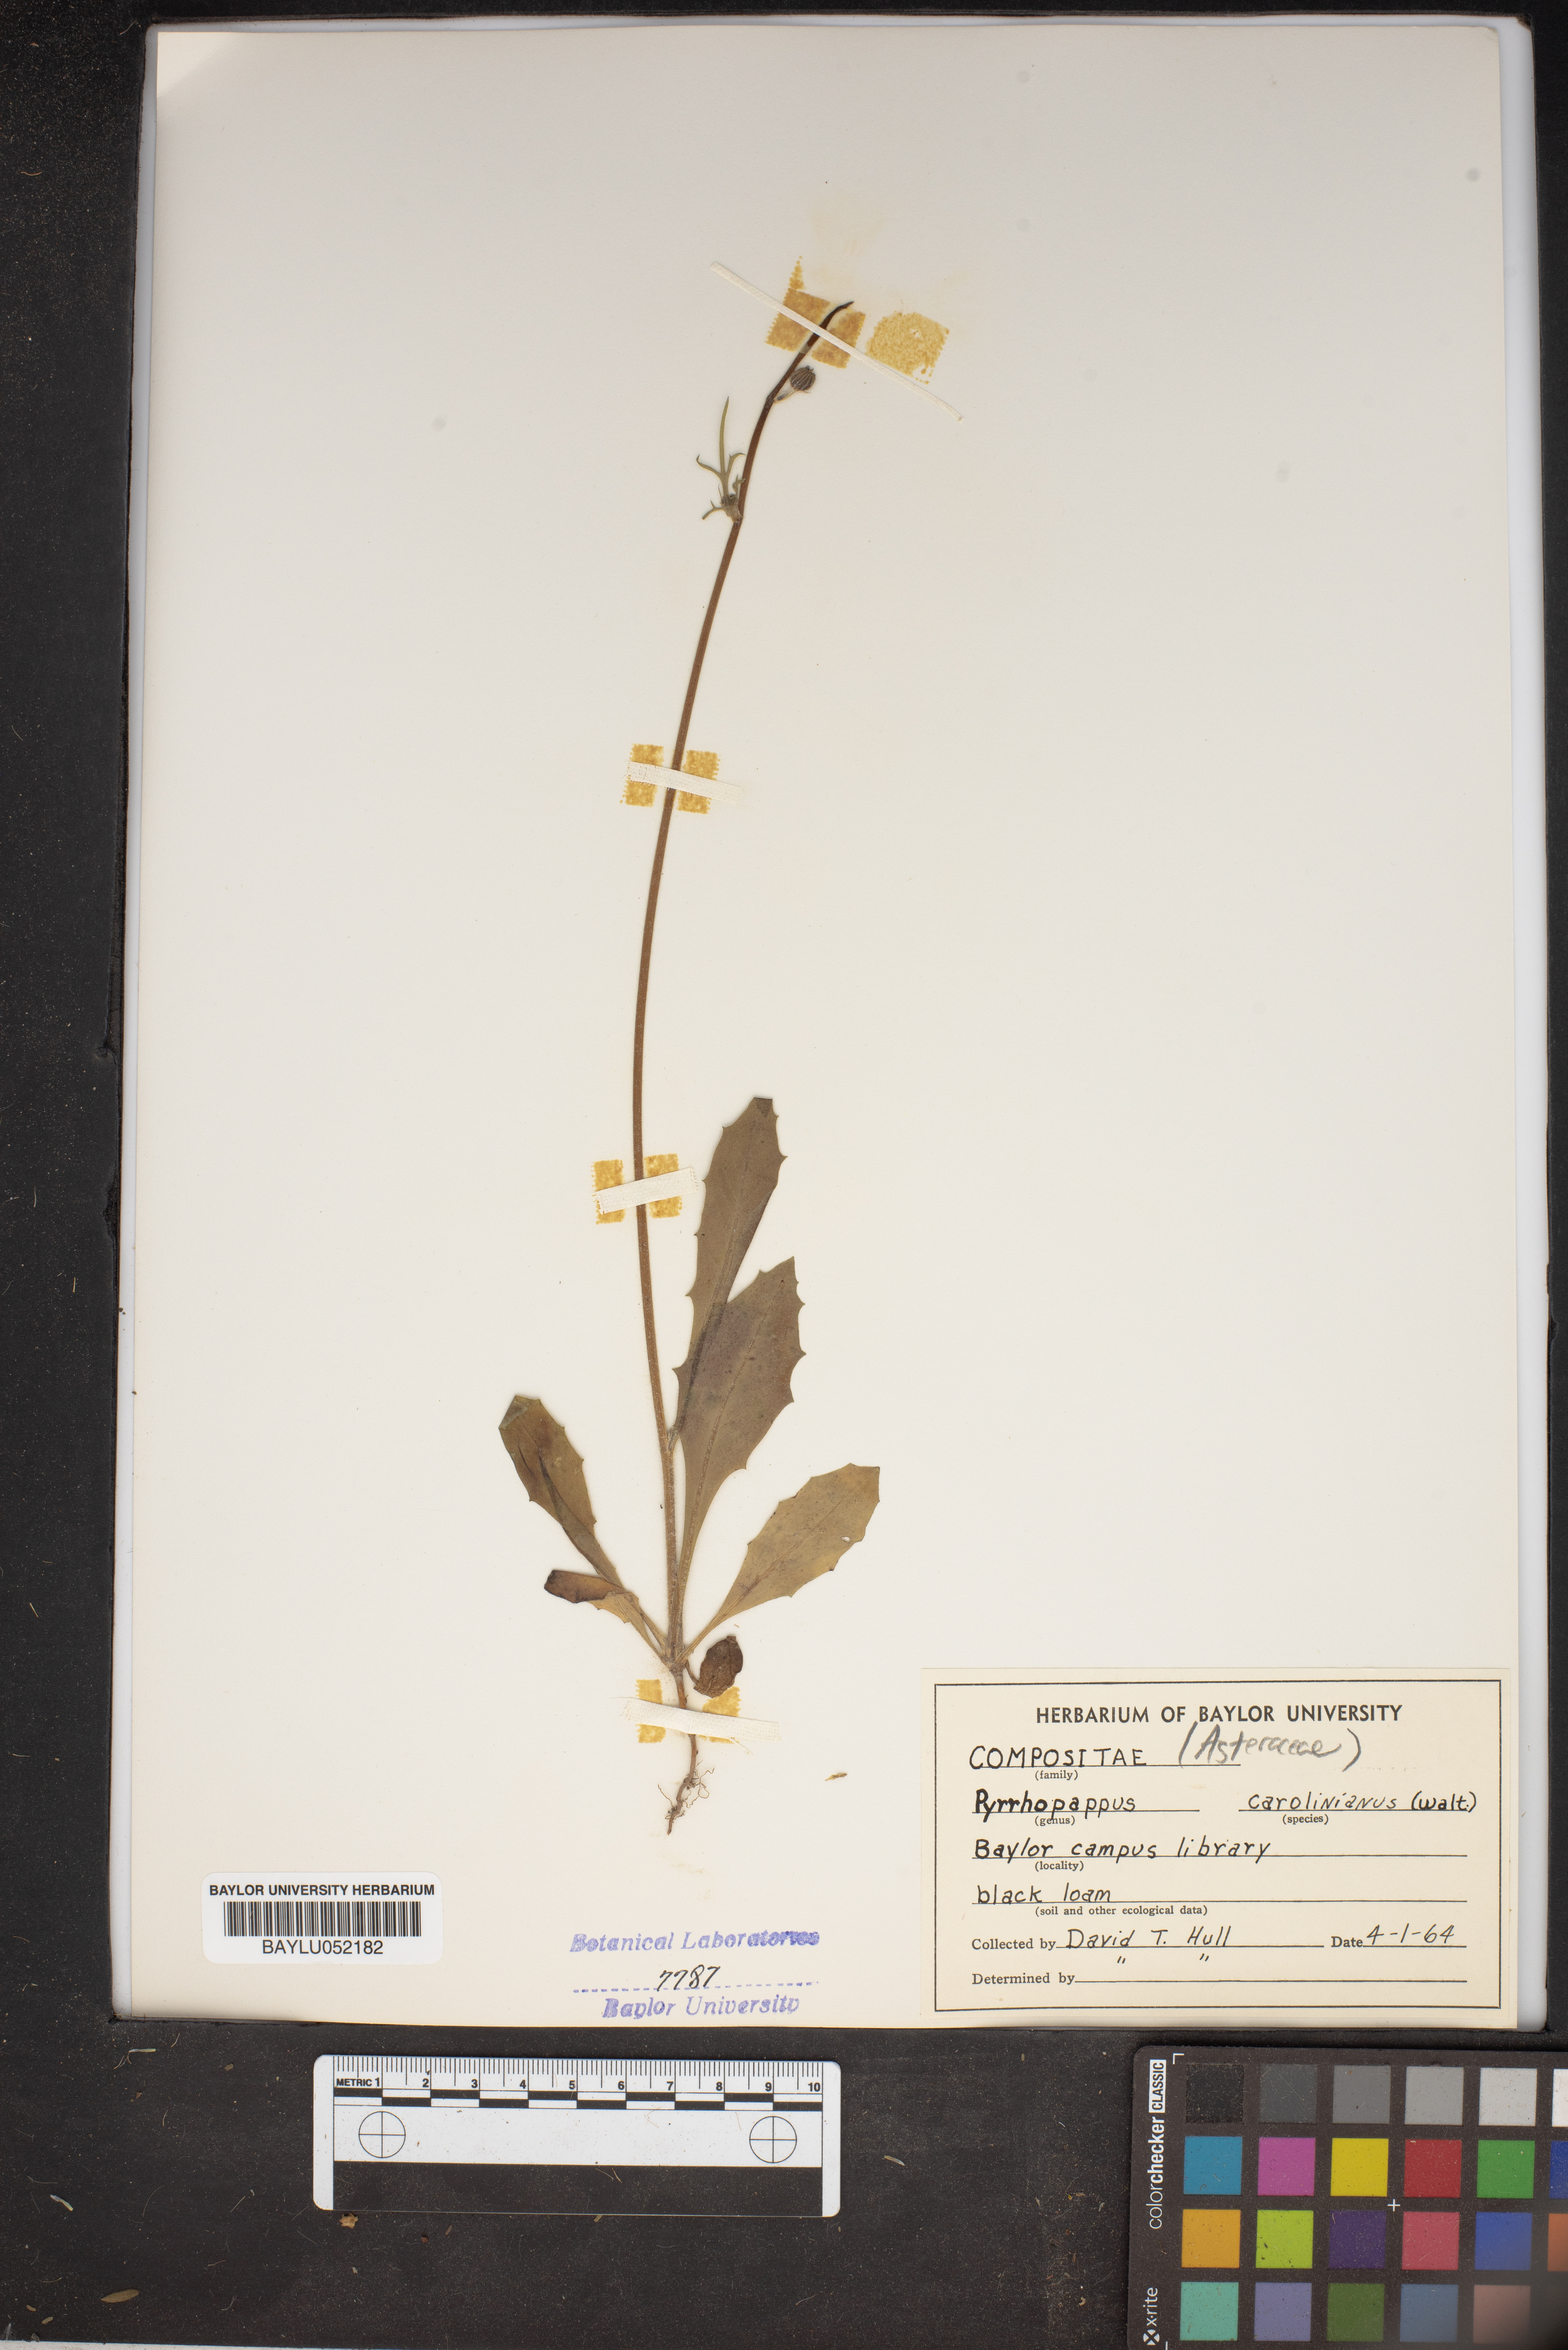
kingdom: Plantae
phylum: Tracheophyta
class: Magnoliopsida
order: Asterales
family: Asteraceae
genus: Pyrrhopappus
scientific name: Pyrrhopappus carolinianus
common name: Carolina desert-chicory
